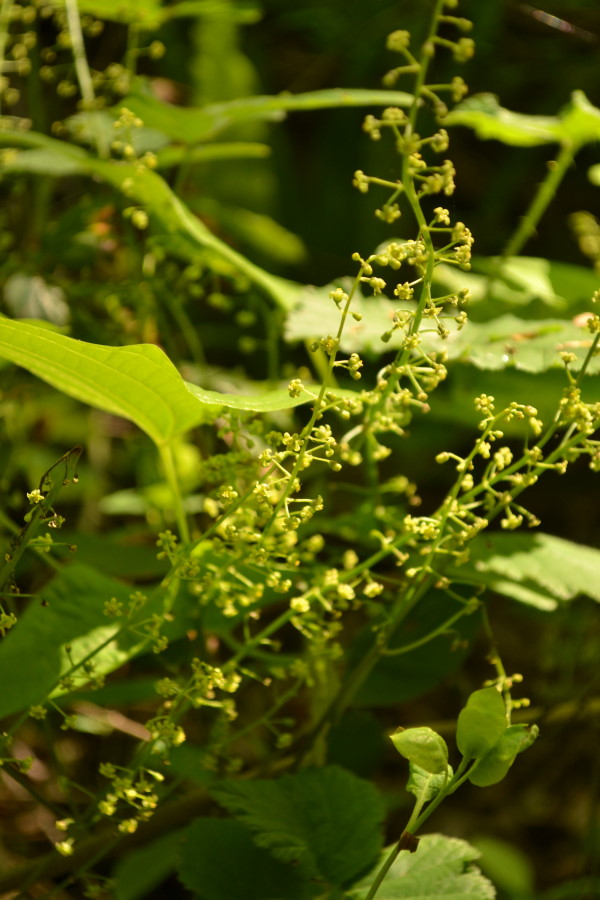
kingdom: Plantae
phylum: Tracheophyta
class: Liliopsida
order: Dioscoreales
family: Dioscoreaceae
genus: Dioscorea
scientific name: Dioscorea caucasica
